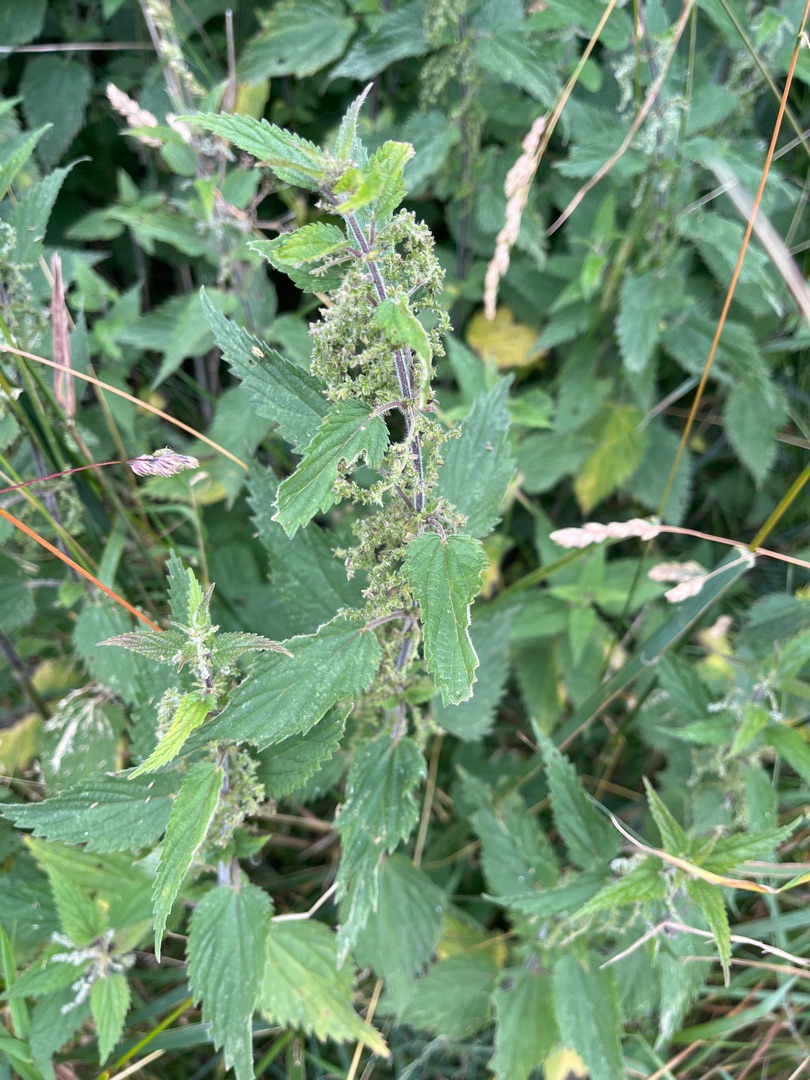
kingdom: Plantae
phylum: Tracheophyta
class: Magnoliopsida
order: Rosales
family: Urticaceae
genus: Urtica
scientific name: Urtica dioica
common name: Stor nælde
